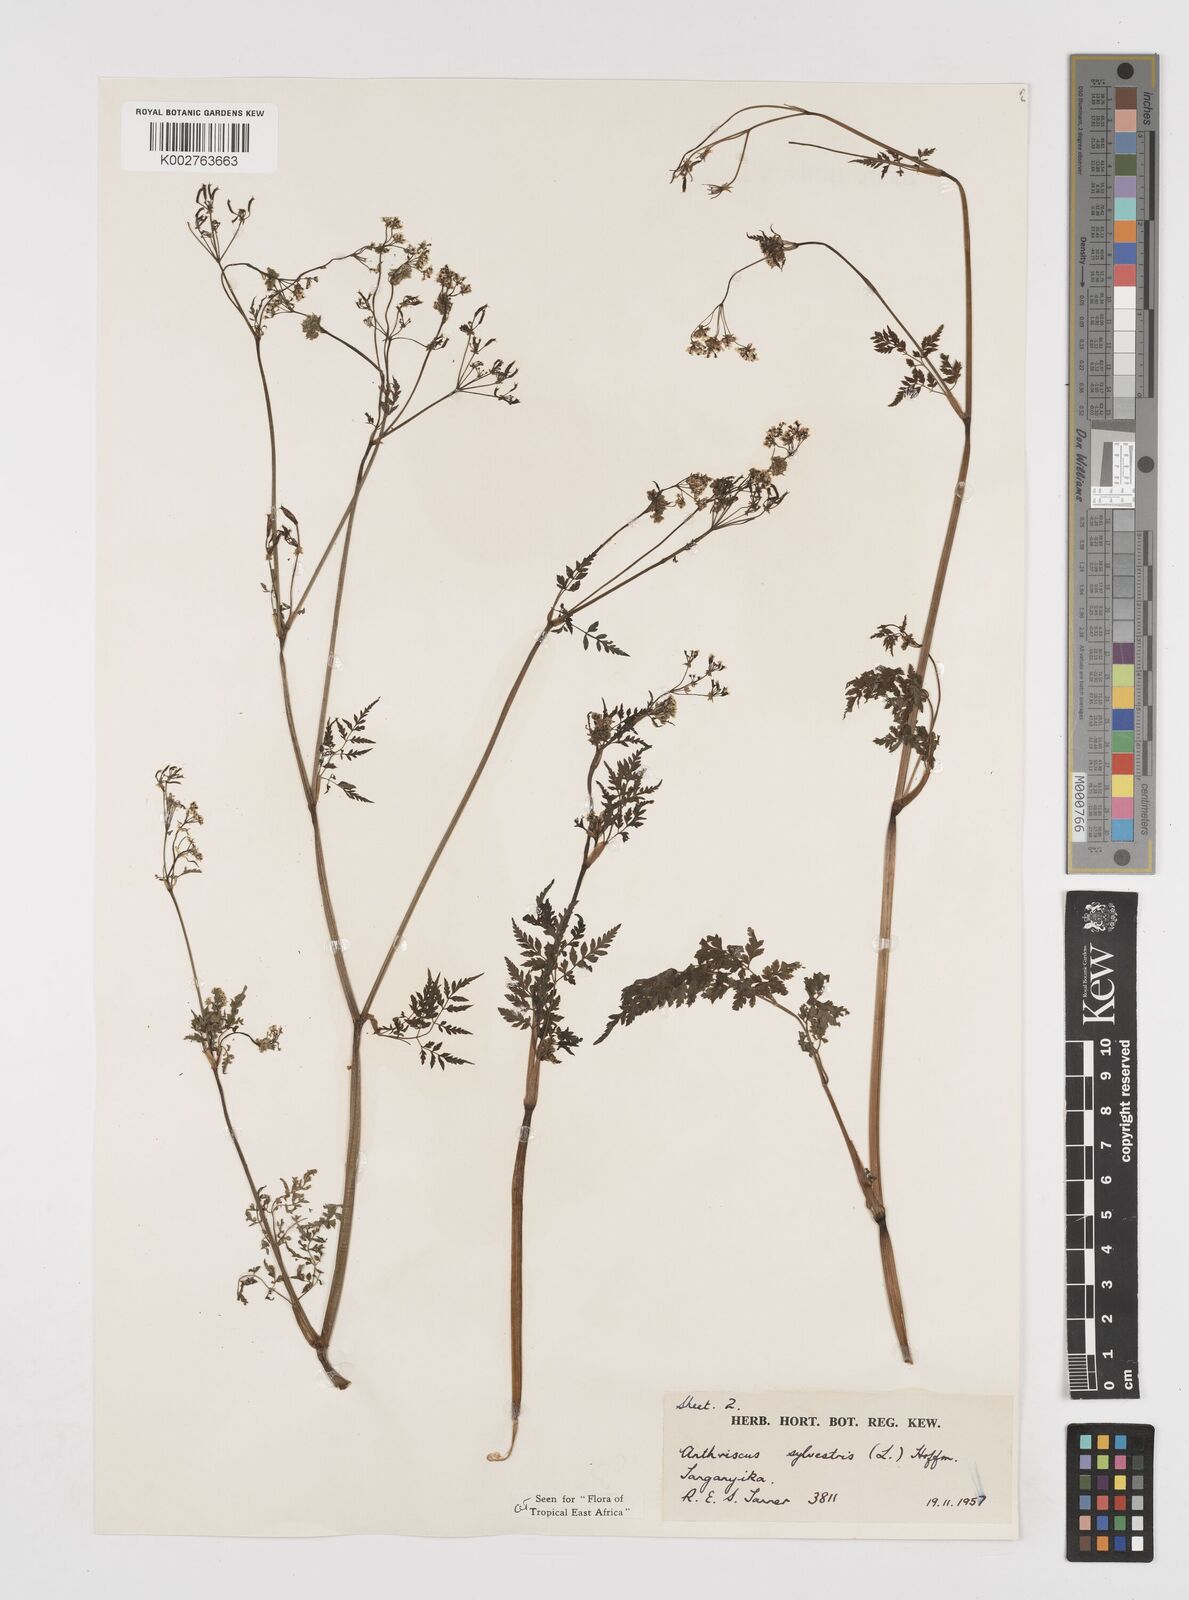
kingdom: Plantae
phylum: Tracheophyta
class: Magnoliopsida
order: Apiales
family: Apiaceae
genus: Anthriscus
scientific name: Anthriscus sylvestris
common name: Cow parsley
